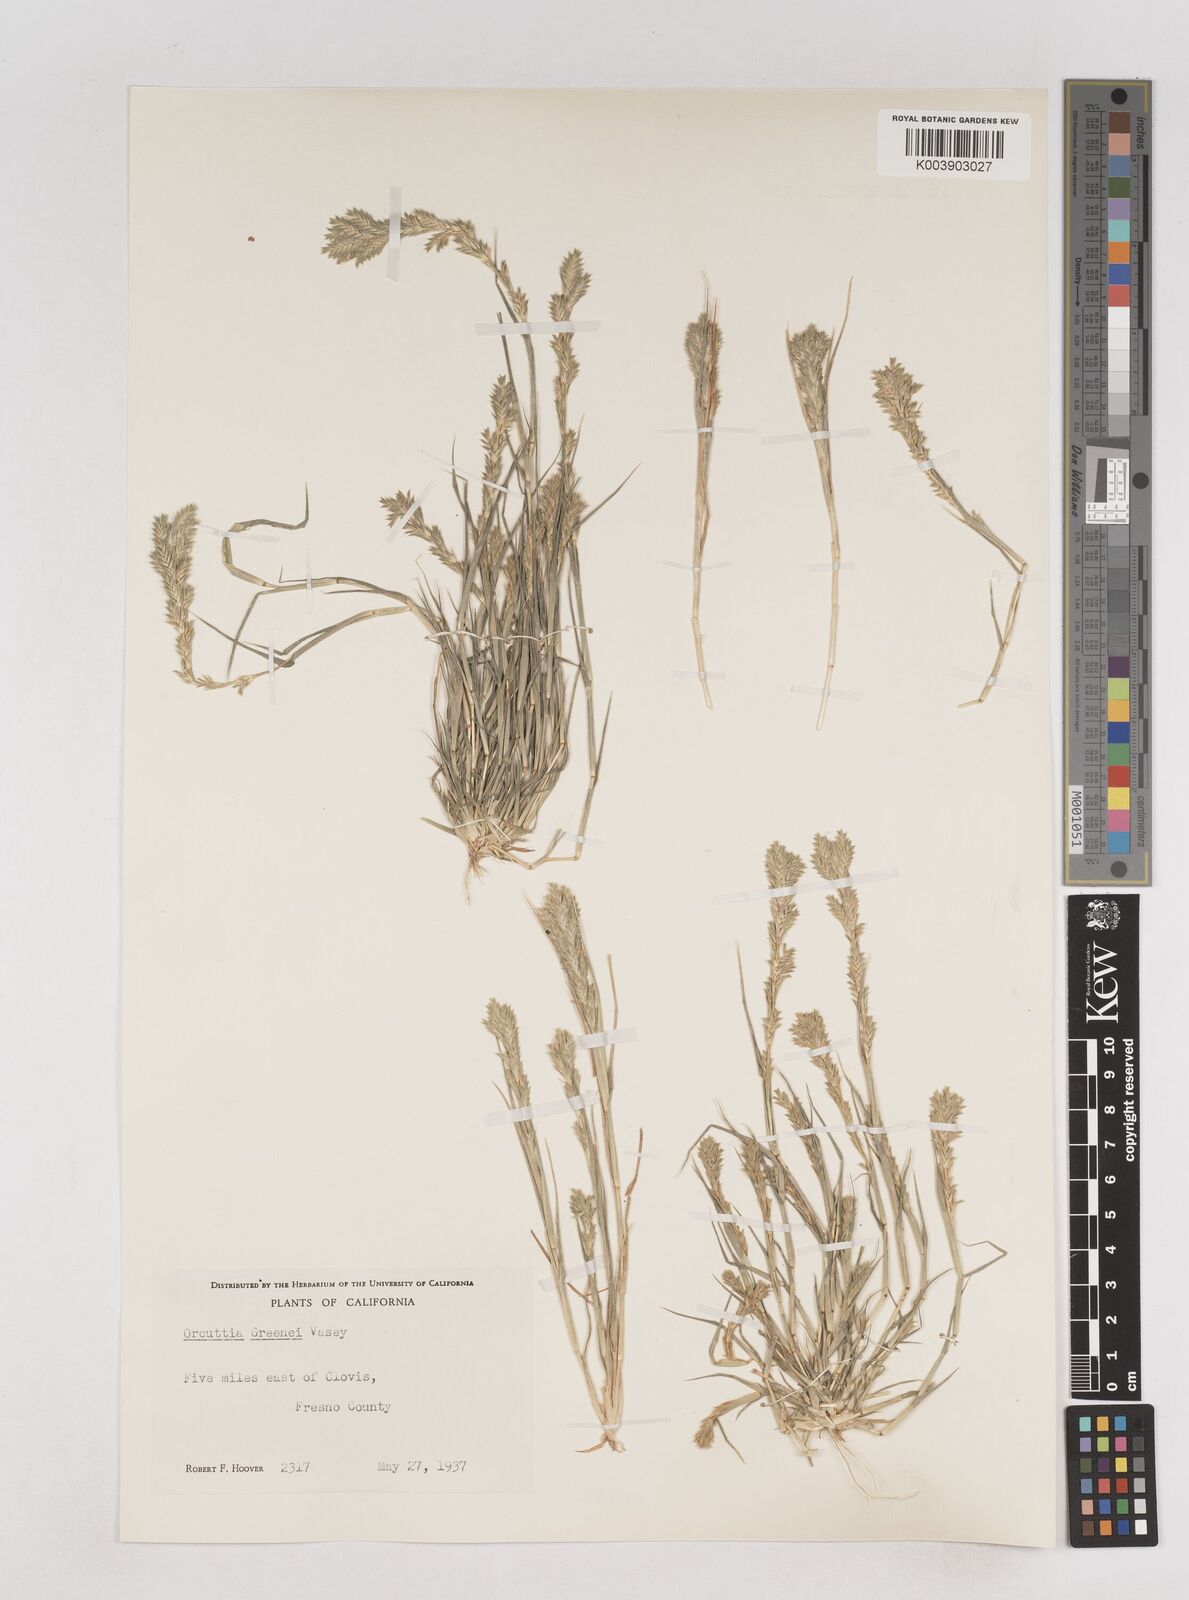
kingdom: Plantae
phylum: Tracheophyta
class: Liliopsida
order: Poales
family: Poaceae
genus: Tuctoria
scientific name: Tuctoria greenei
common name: Awnless spiral grass
